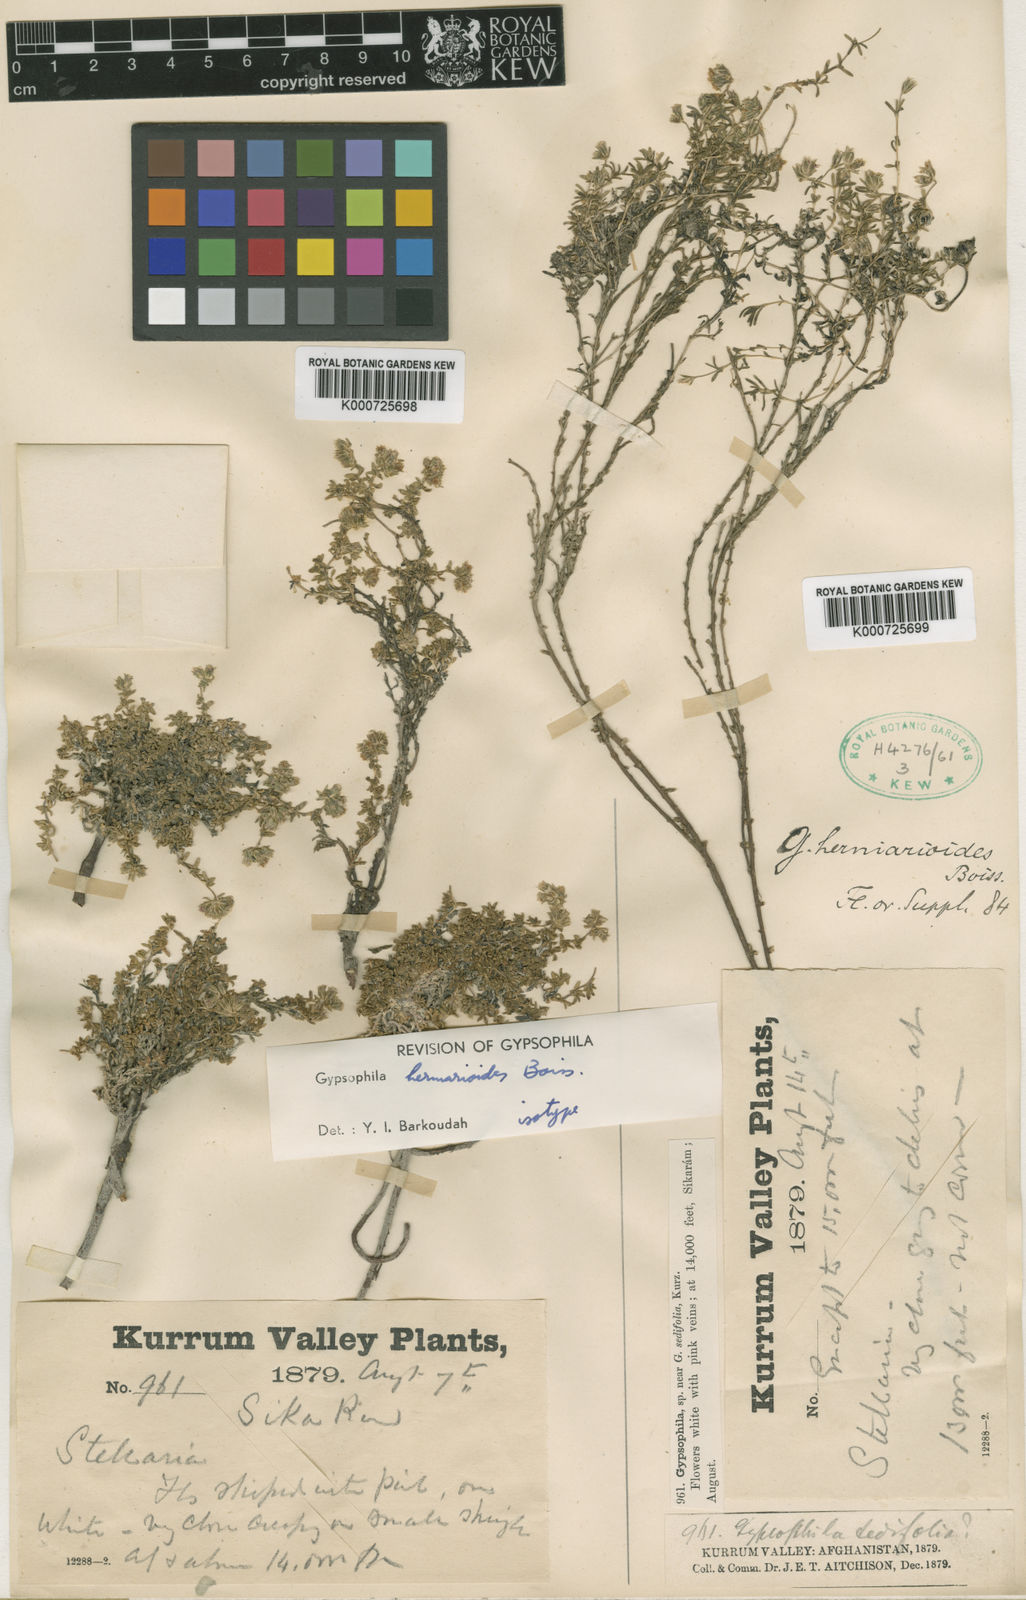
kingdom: Plantae
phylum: Tracheophyta
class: Magnoliopsida
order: Caryophyllales
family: Caryophyllaceae
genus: Acanthophyllum
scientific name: Acanthophyllum herniarioides
